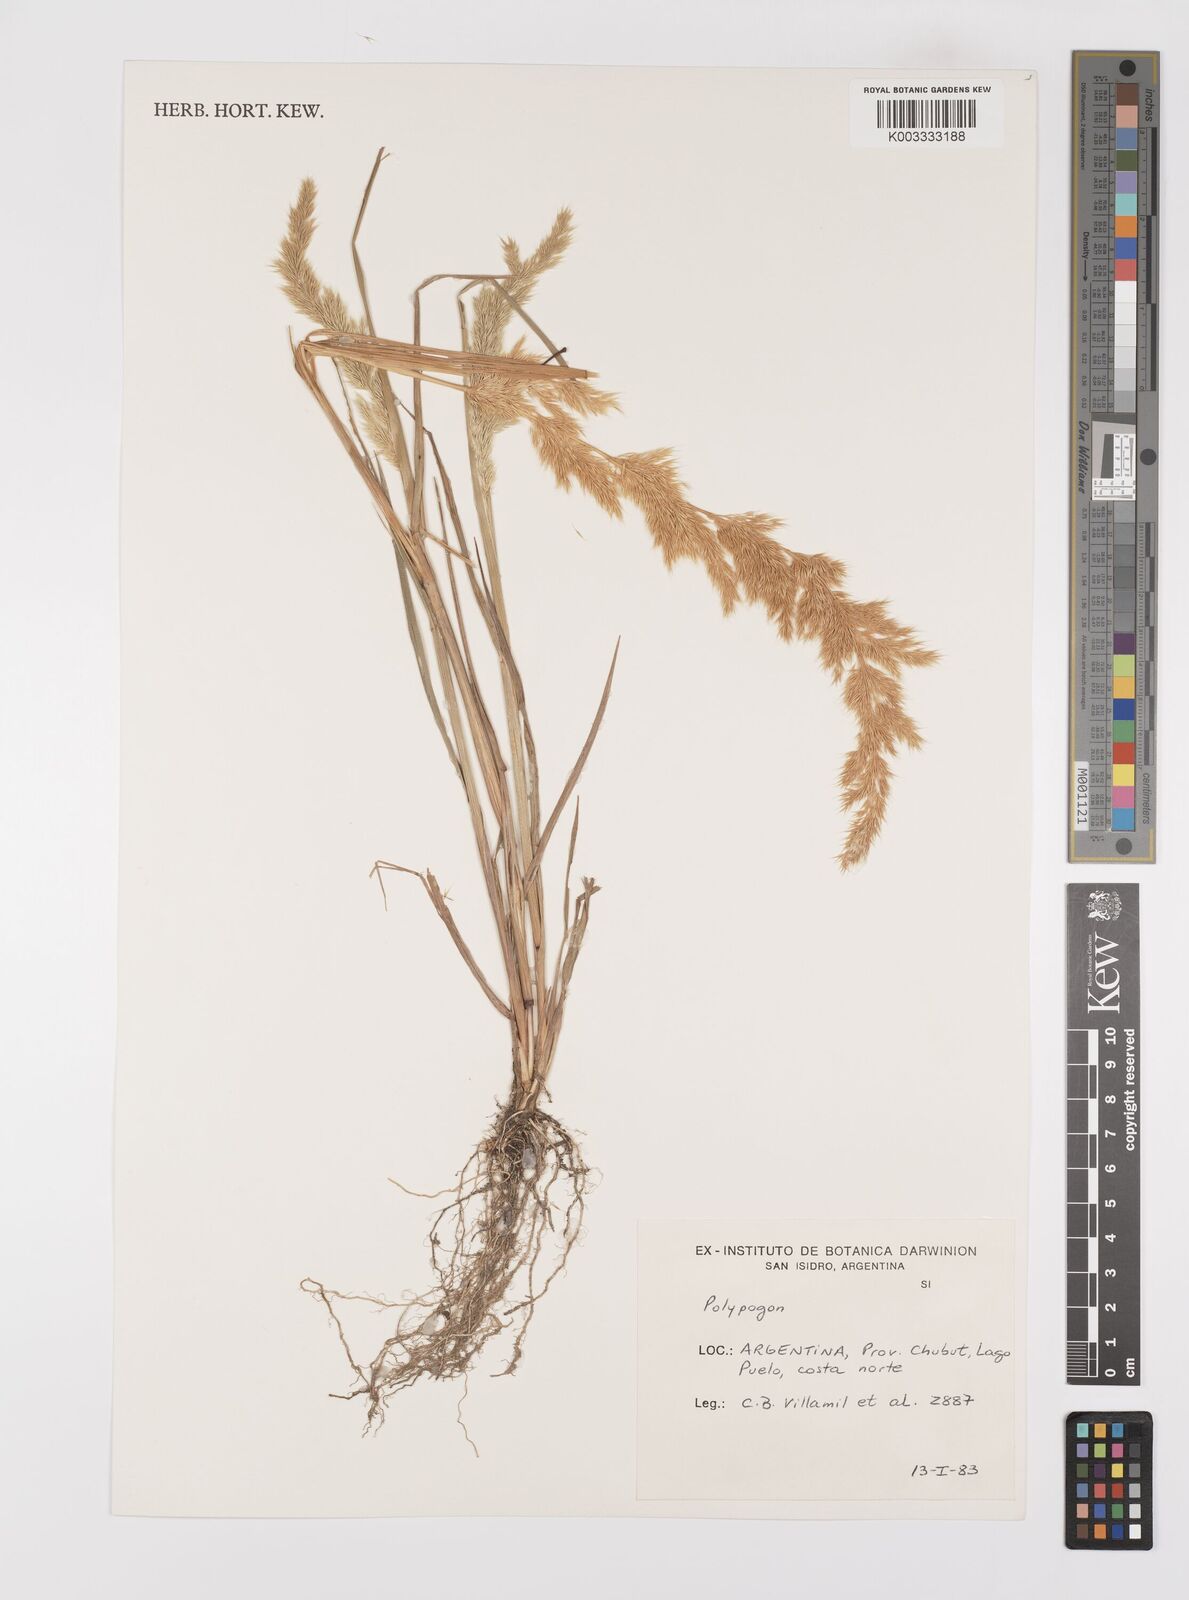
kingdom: Plantae
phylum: Tracheophyta
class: Liliopsida
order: Poales
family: Poaceae
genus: Polypogon
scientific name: Polypogon elongatus
